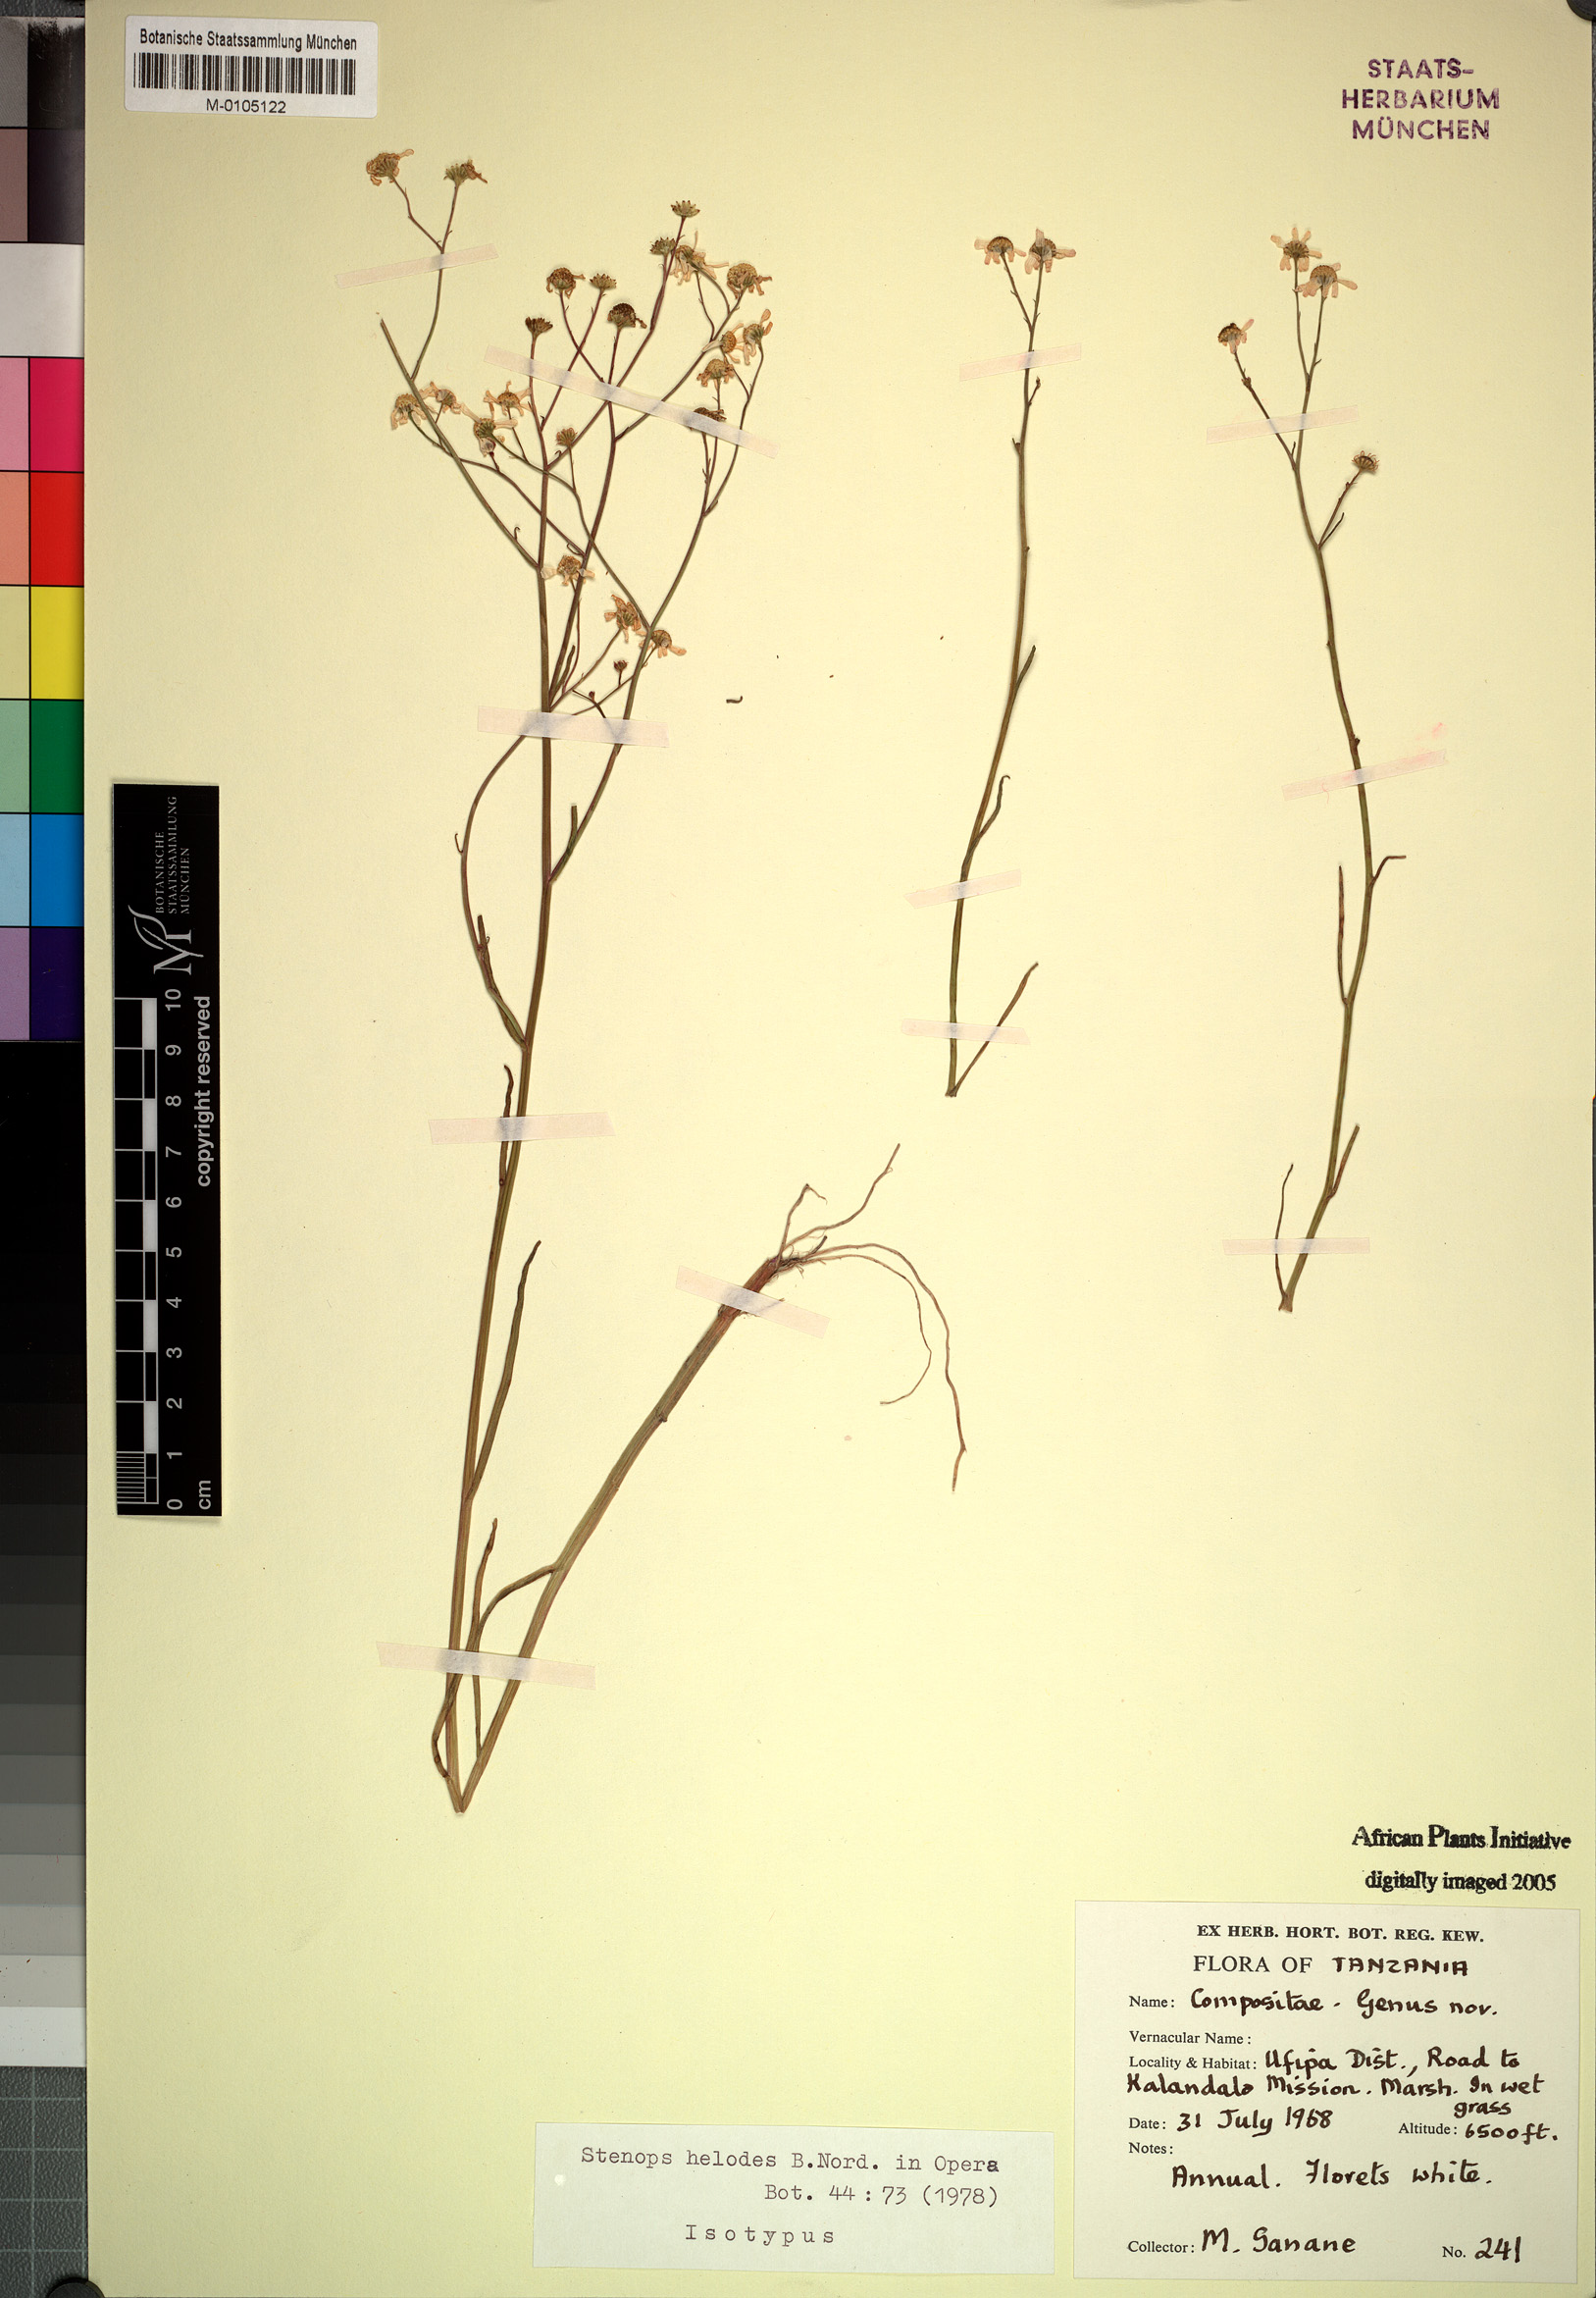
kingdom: Plantae
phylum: Tracheophyta
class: Magnoliopsida
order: Asterales
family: Asteraceae
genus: Stenops
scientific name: Stenops helodes
